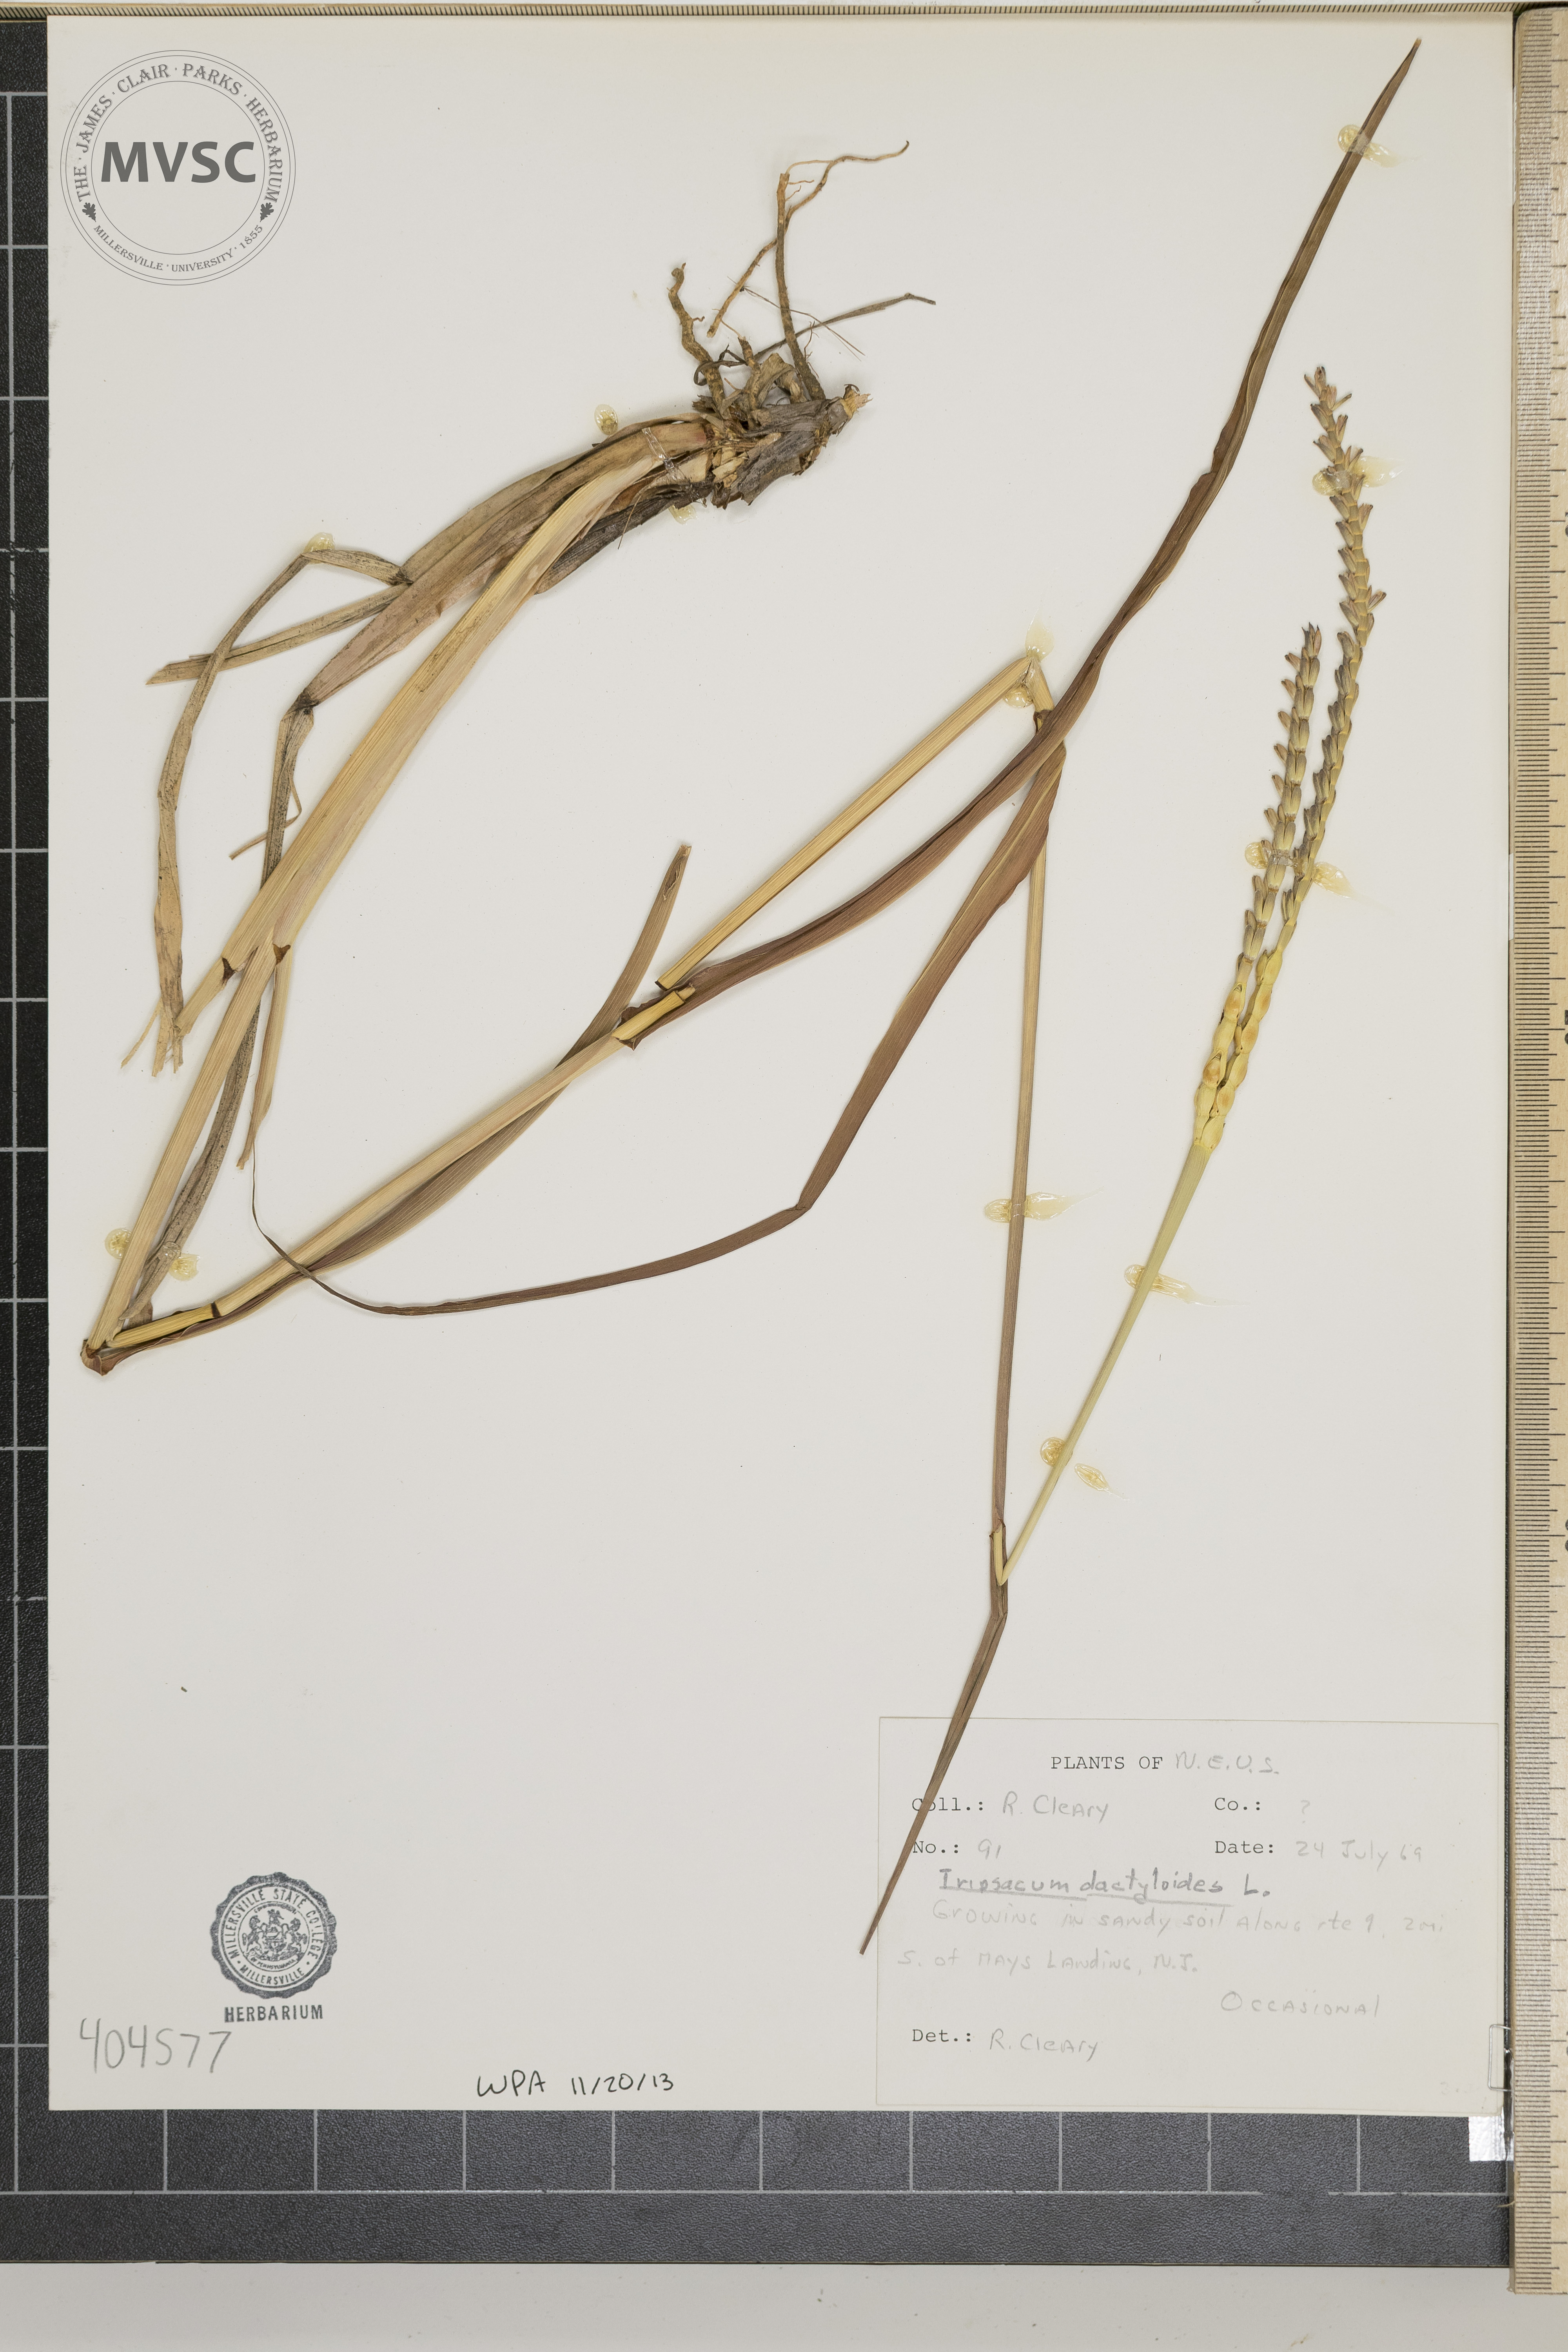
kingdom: Plantae
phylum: Tracheophyta
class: Liliopsida
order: Poales
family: Poaceae
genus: Tripsacum
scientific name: Tripsacum dactyloides
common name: Buffalo-grass
